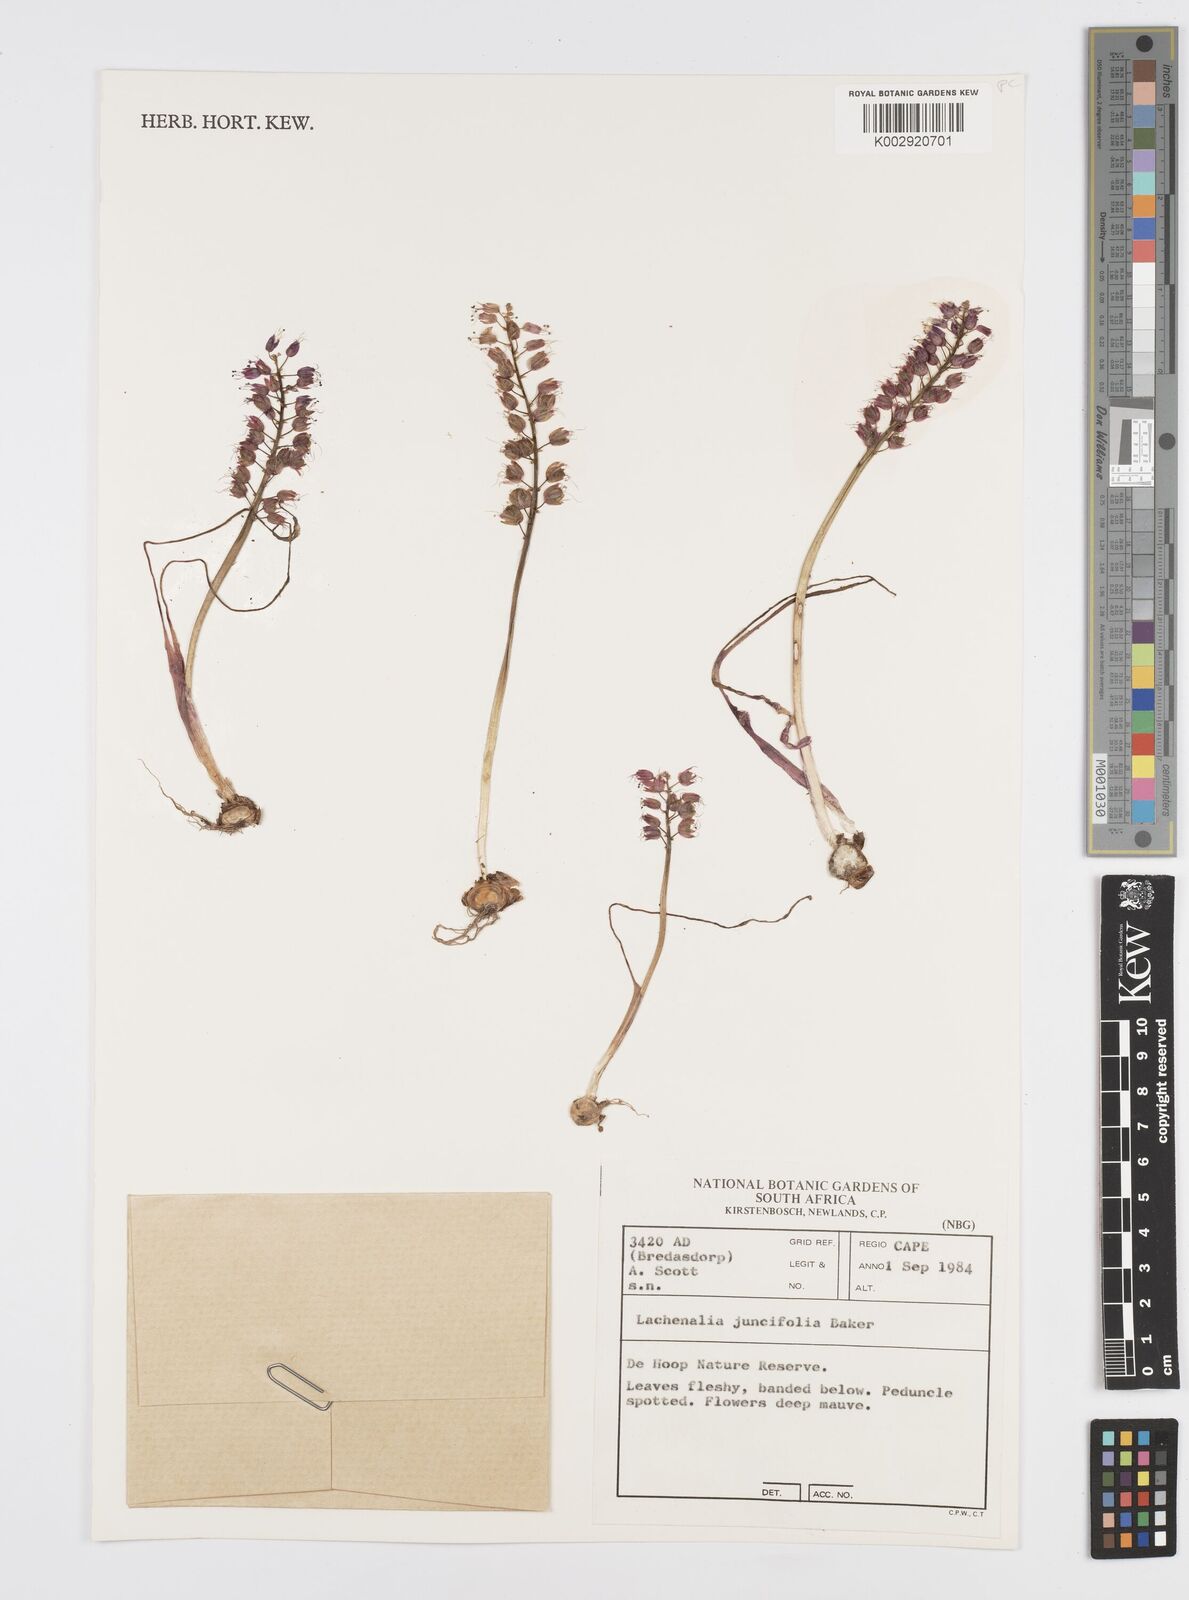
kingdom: Plantae
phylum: Tracheophyta
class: Liliopsida
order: Asparagales
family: Asparagaceae
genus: Lachenalia
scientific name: Lachenalia juncifolia
